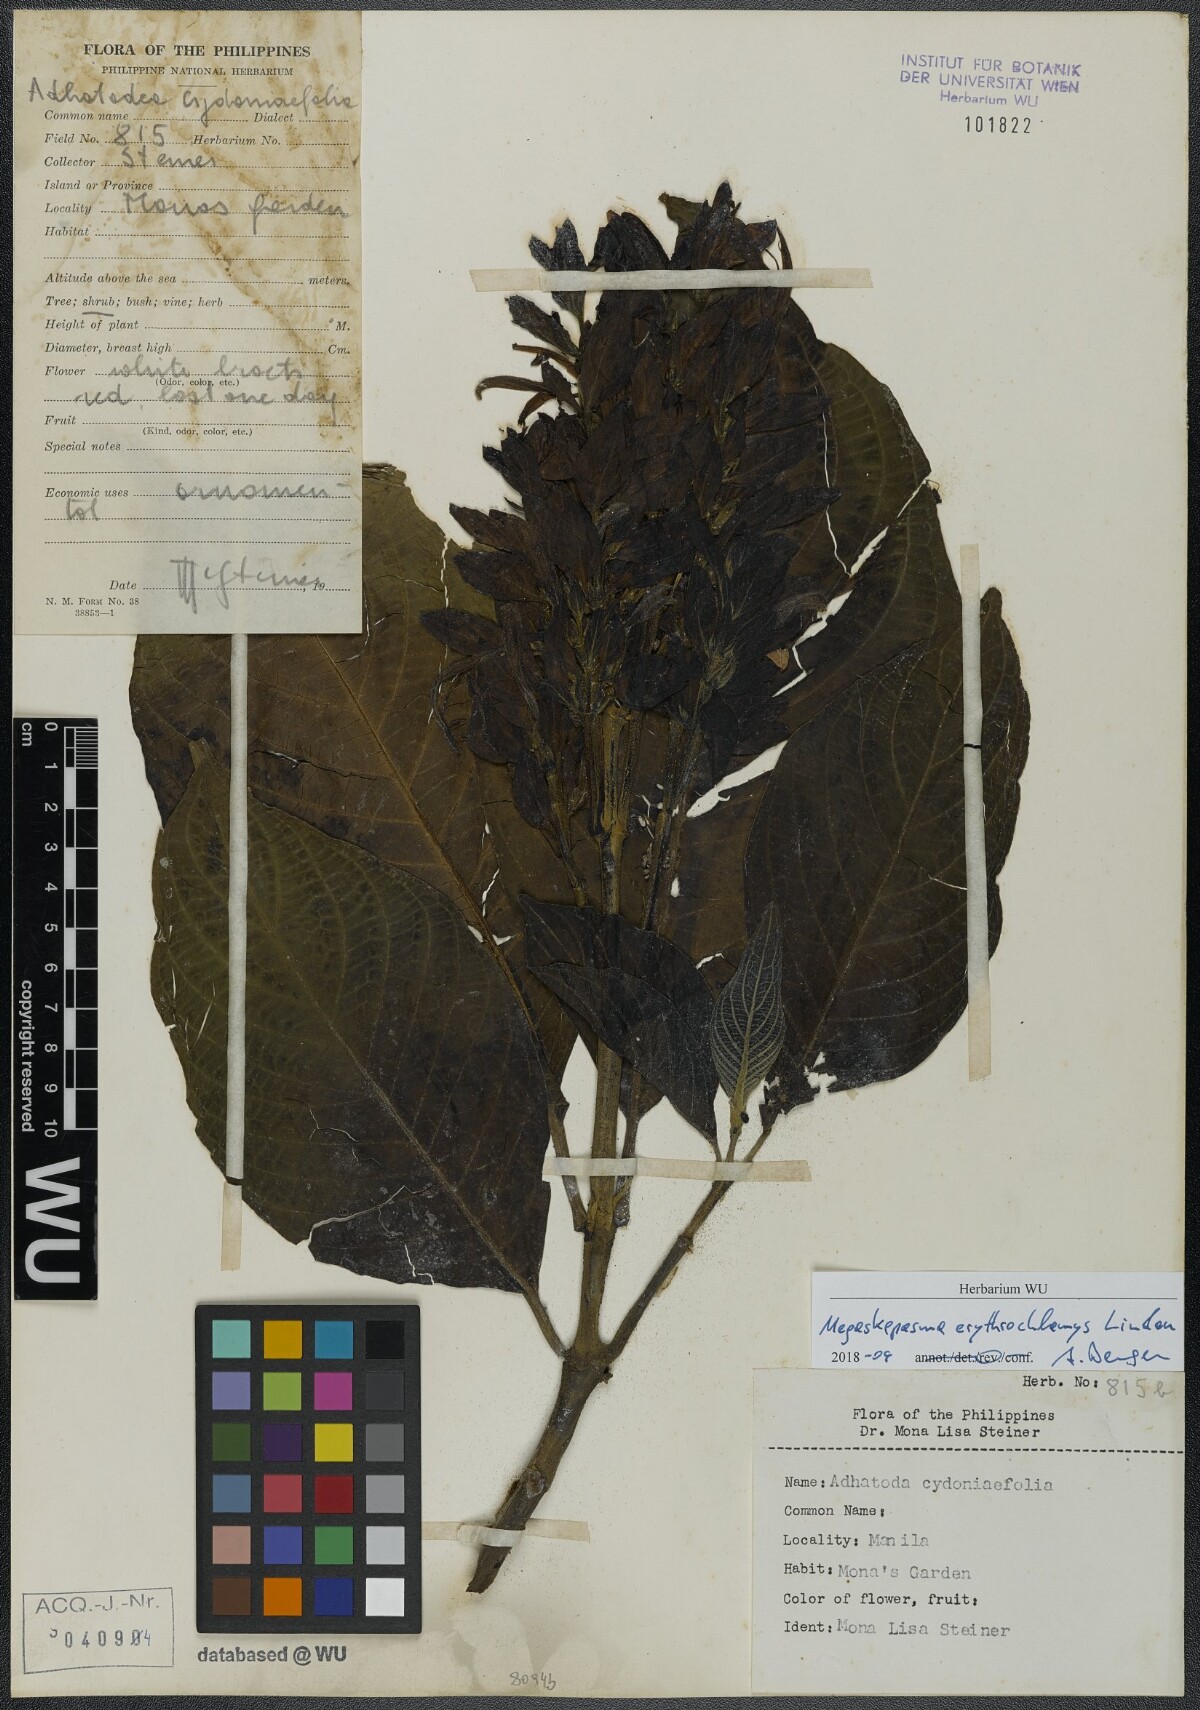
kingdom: Plantae
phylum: Tracheophyta
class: Magnoliopsida
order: Lamiales
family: Acanthaceae
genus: Megaskepasma
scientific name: Megaskepasma erythrochlamys
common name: Brazilian red-cloak
